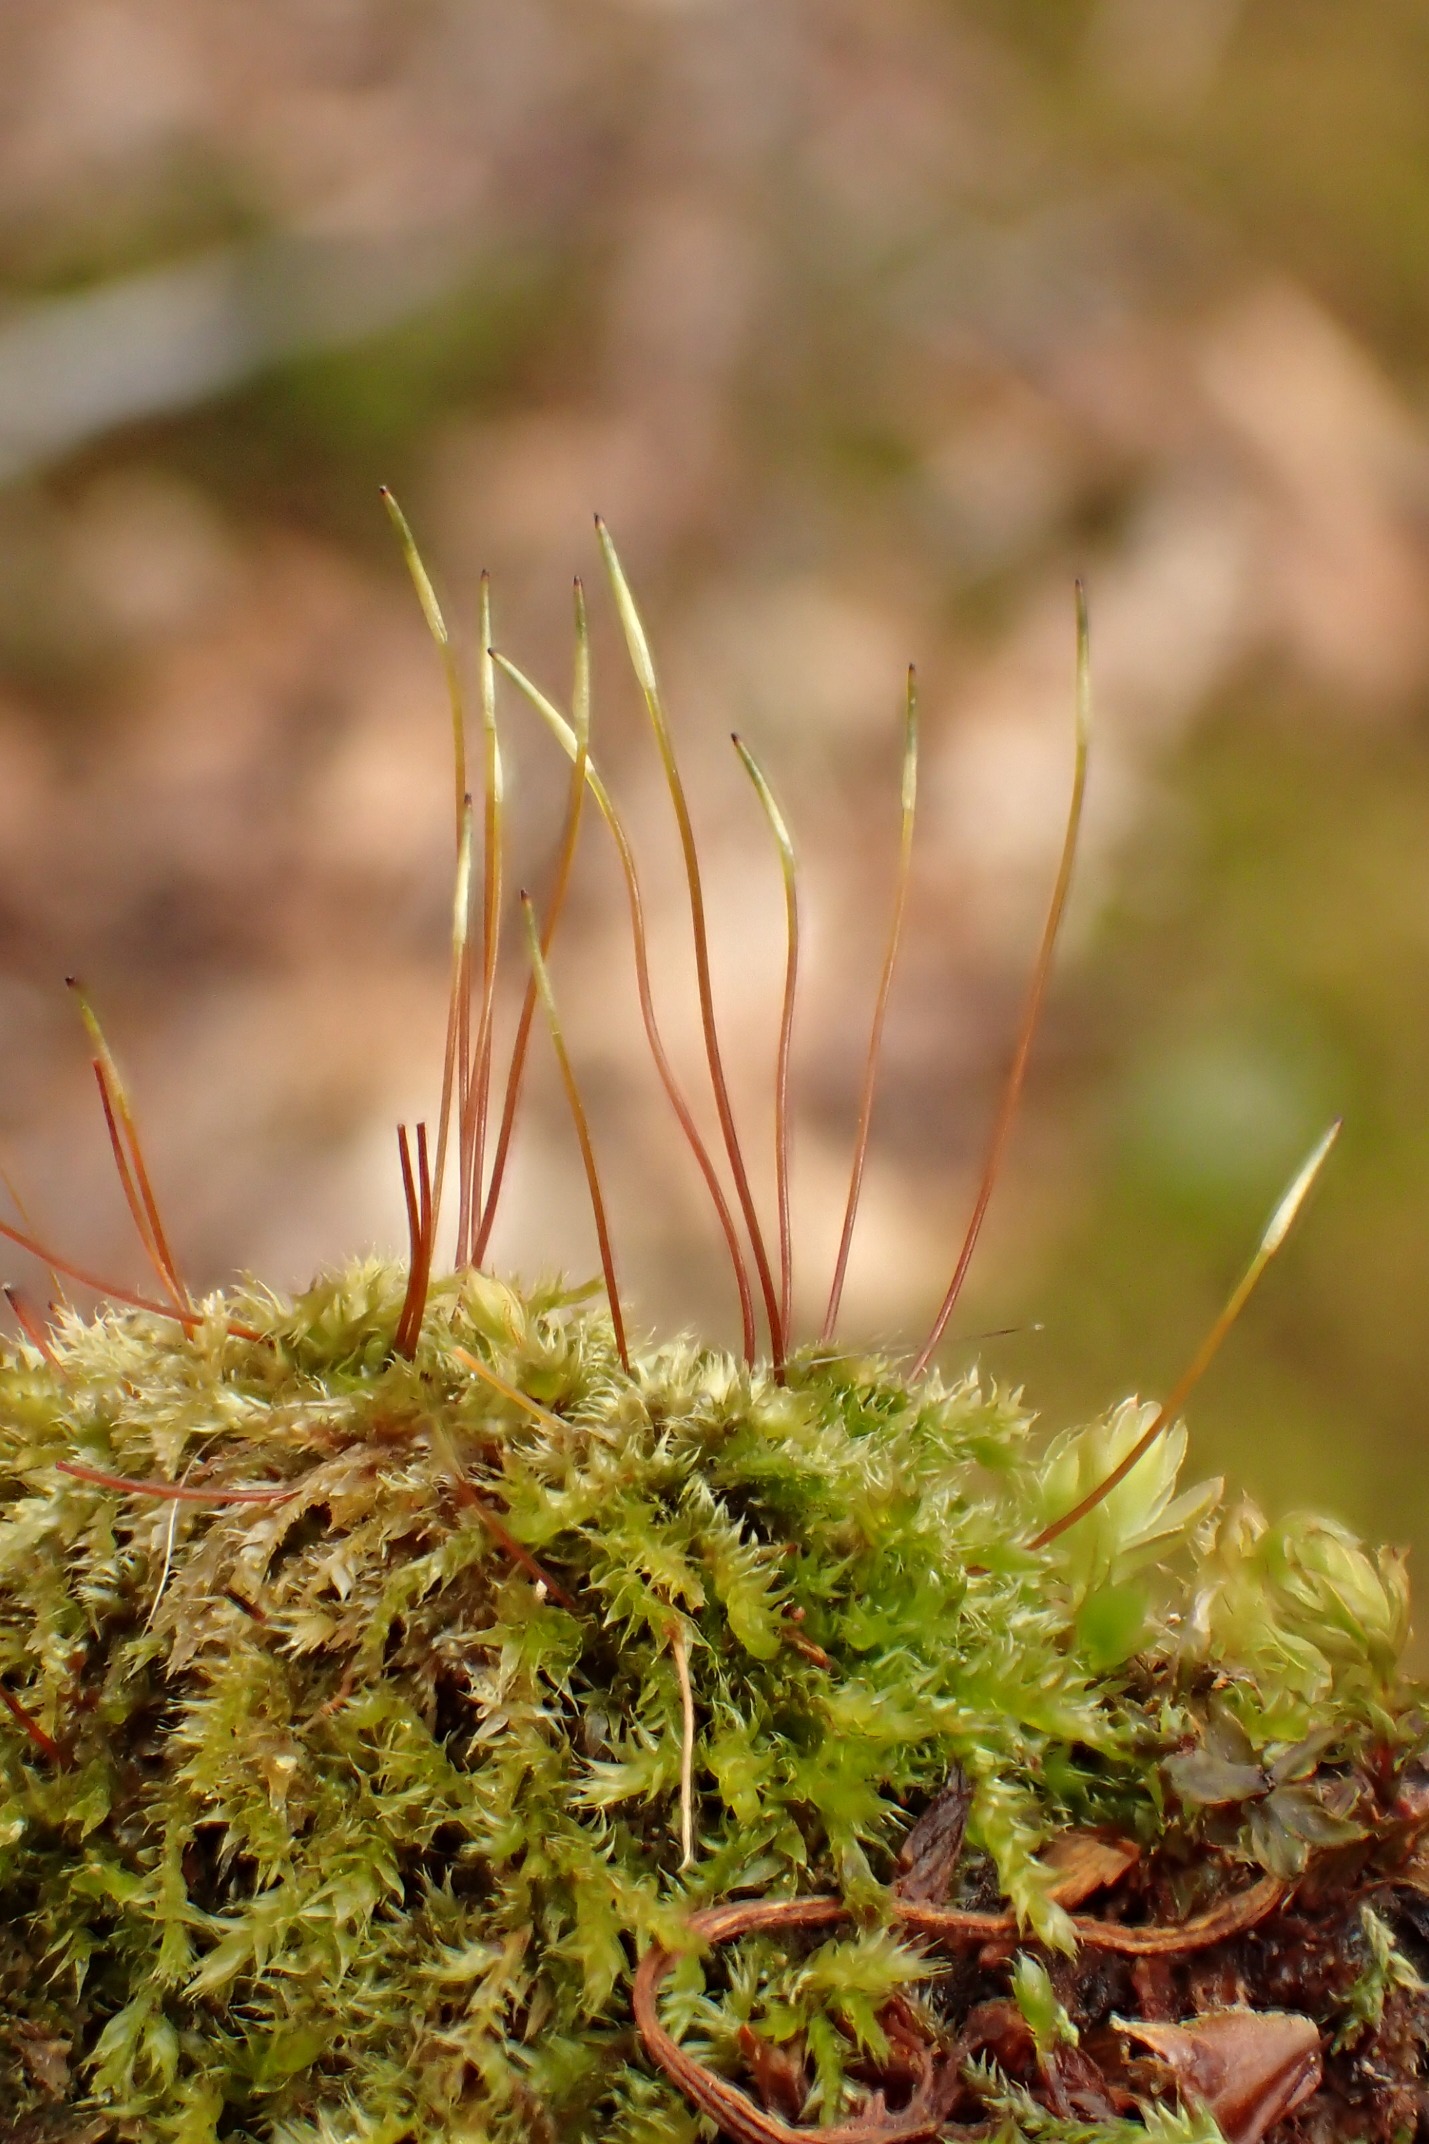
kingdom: Plantae
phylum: Bryophyta
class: Bryopsida
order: Hypnales
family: Plagiotheciaceae
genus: Herzogiella
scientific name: Herzogiella striatella
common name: Tæt pølsekapsel
